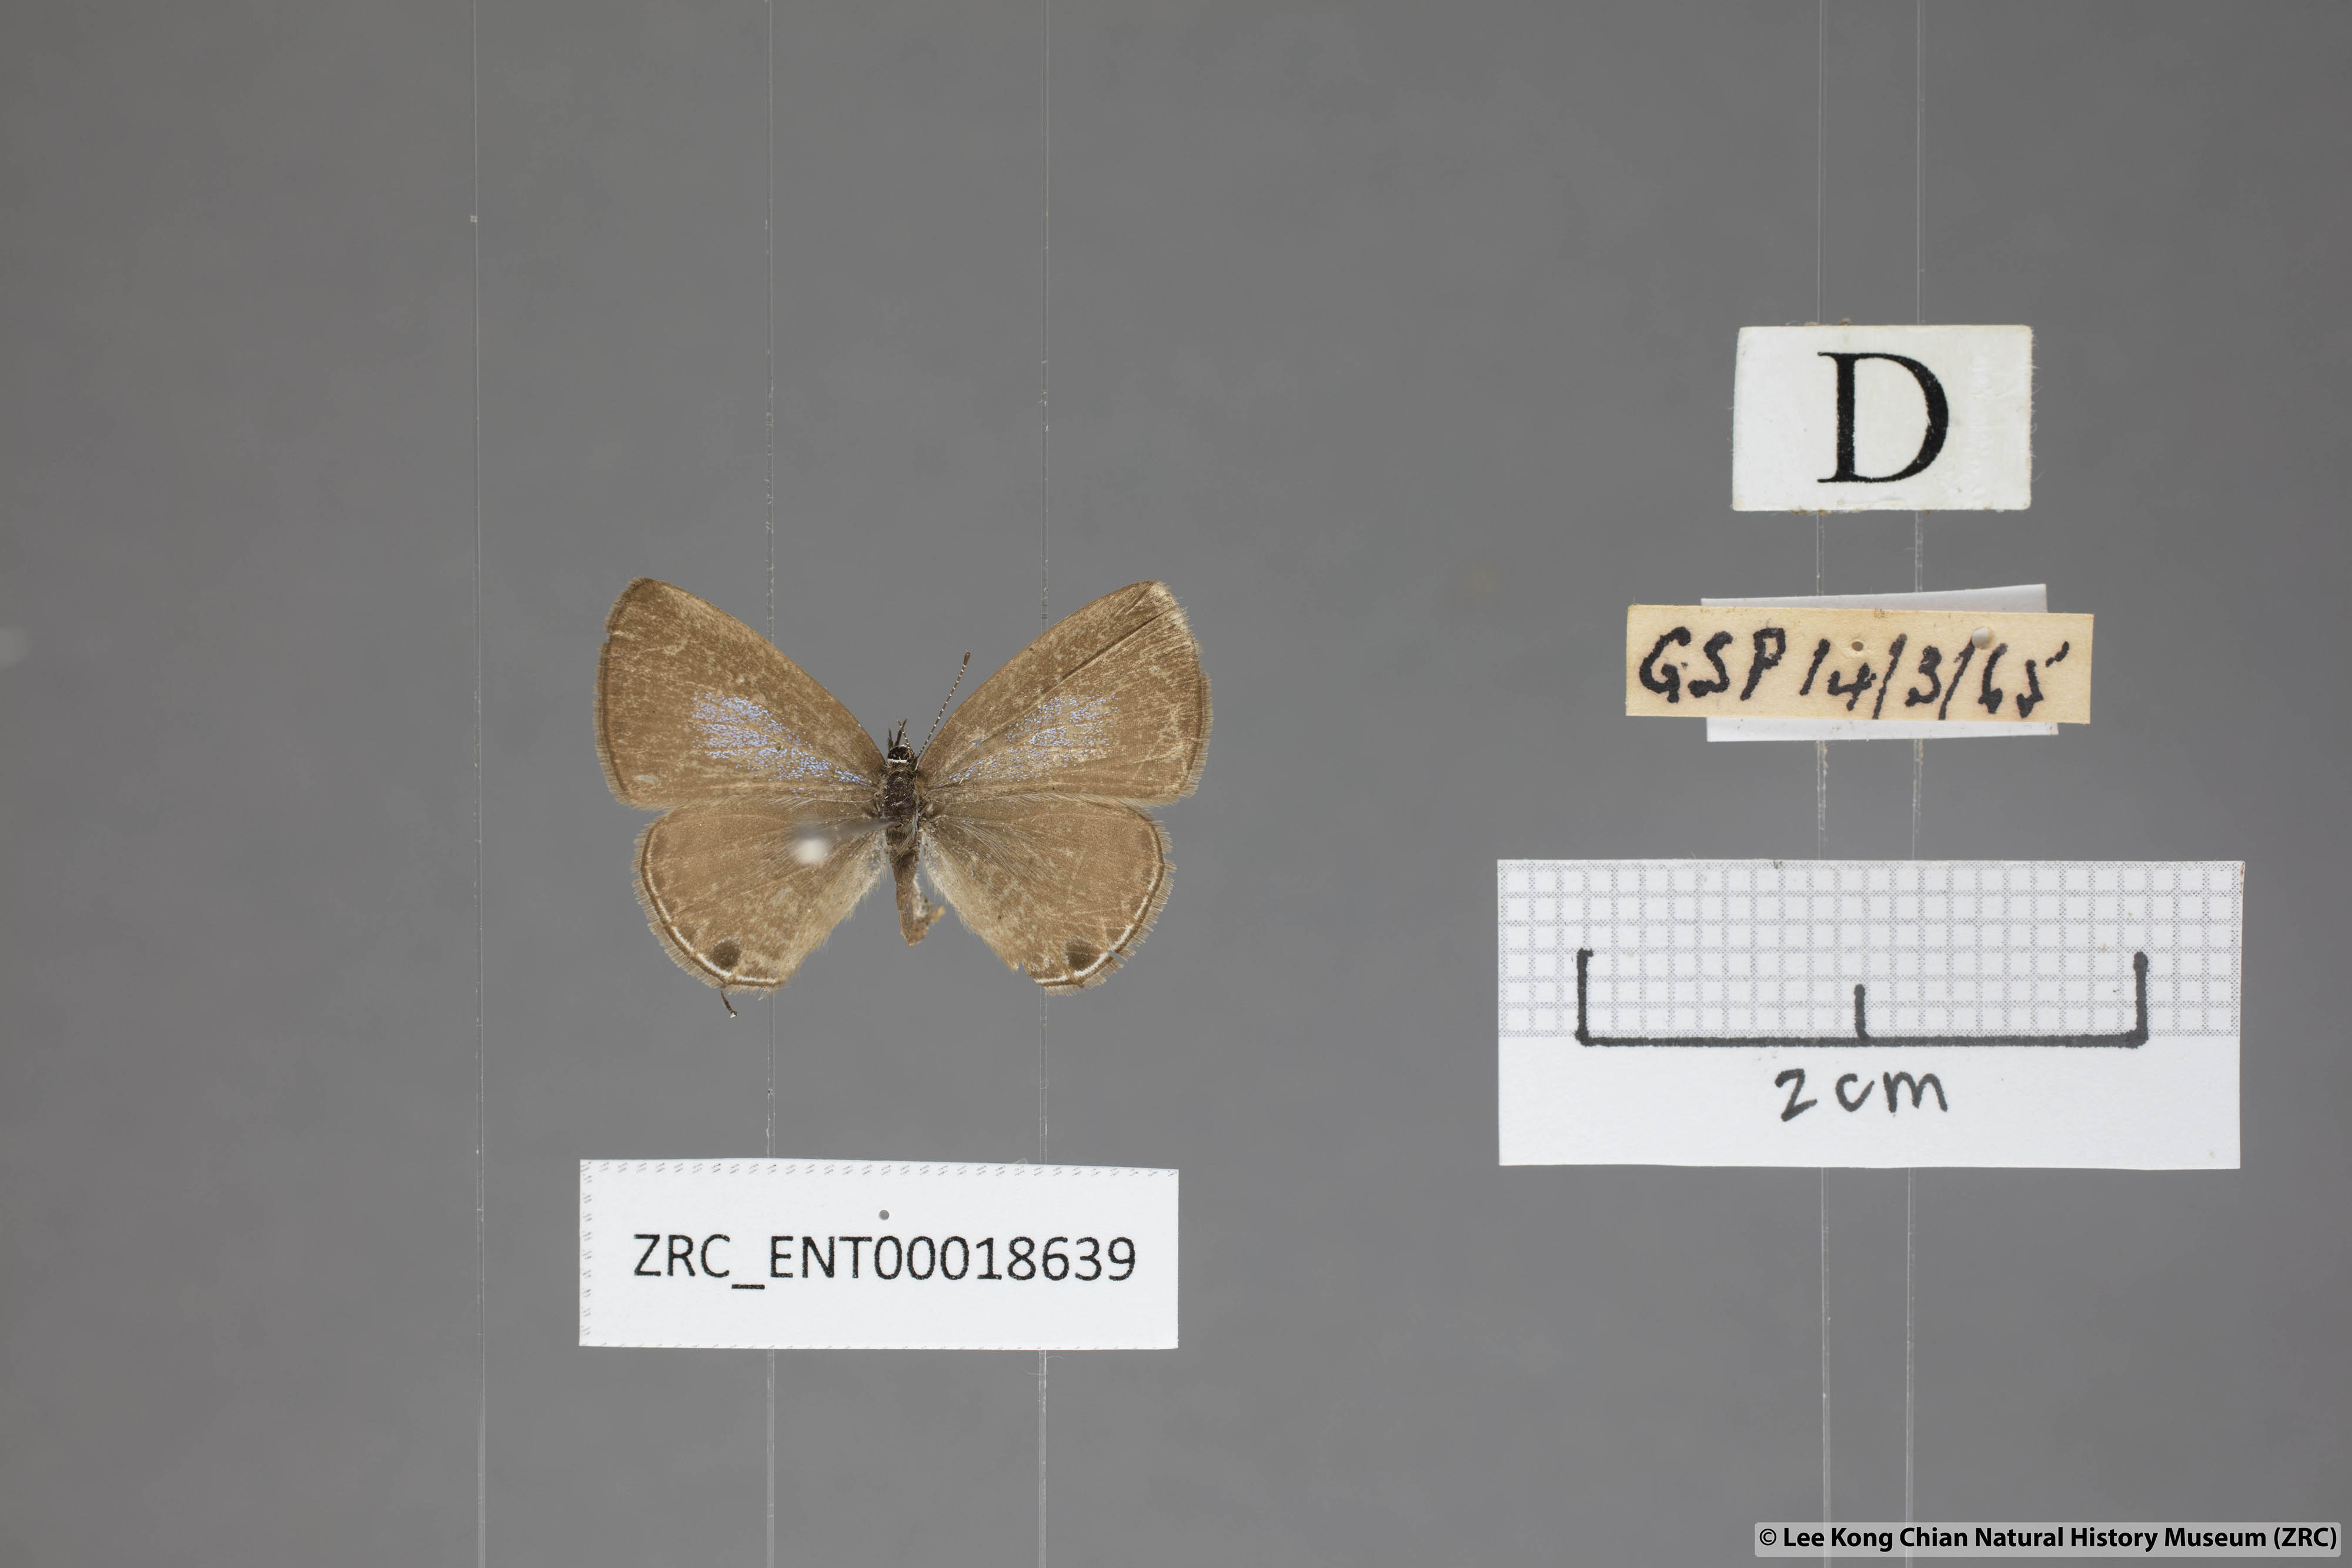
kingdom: Animalia
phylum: Arthropoda
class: Insecta
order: Lepidoptera
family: Lycaenidae
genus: Prosotas
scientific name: Prosotas nora
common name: Common line blue
